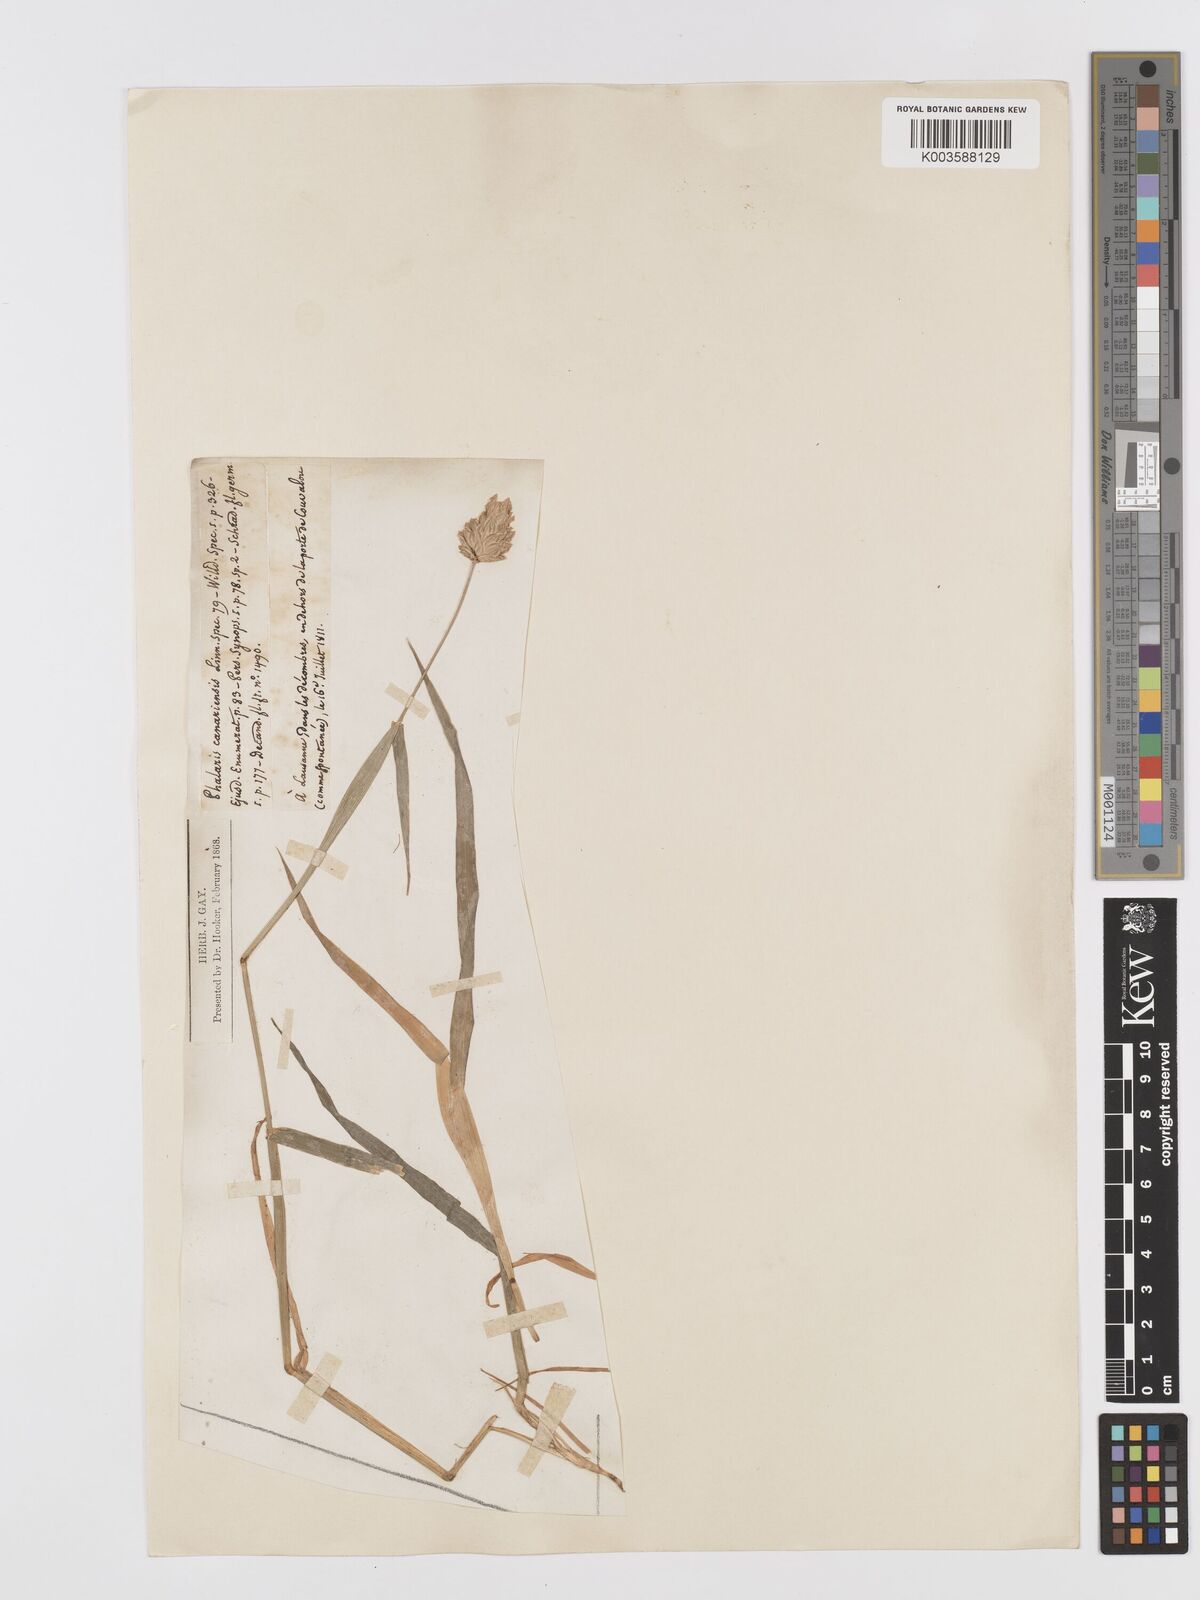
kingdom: Plantae
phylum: Tracheophyta
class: Liliopsida
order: Poales
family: Poaceae
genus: Phalaris
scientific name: Phalaris canariensis
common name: Annual canarygrass
